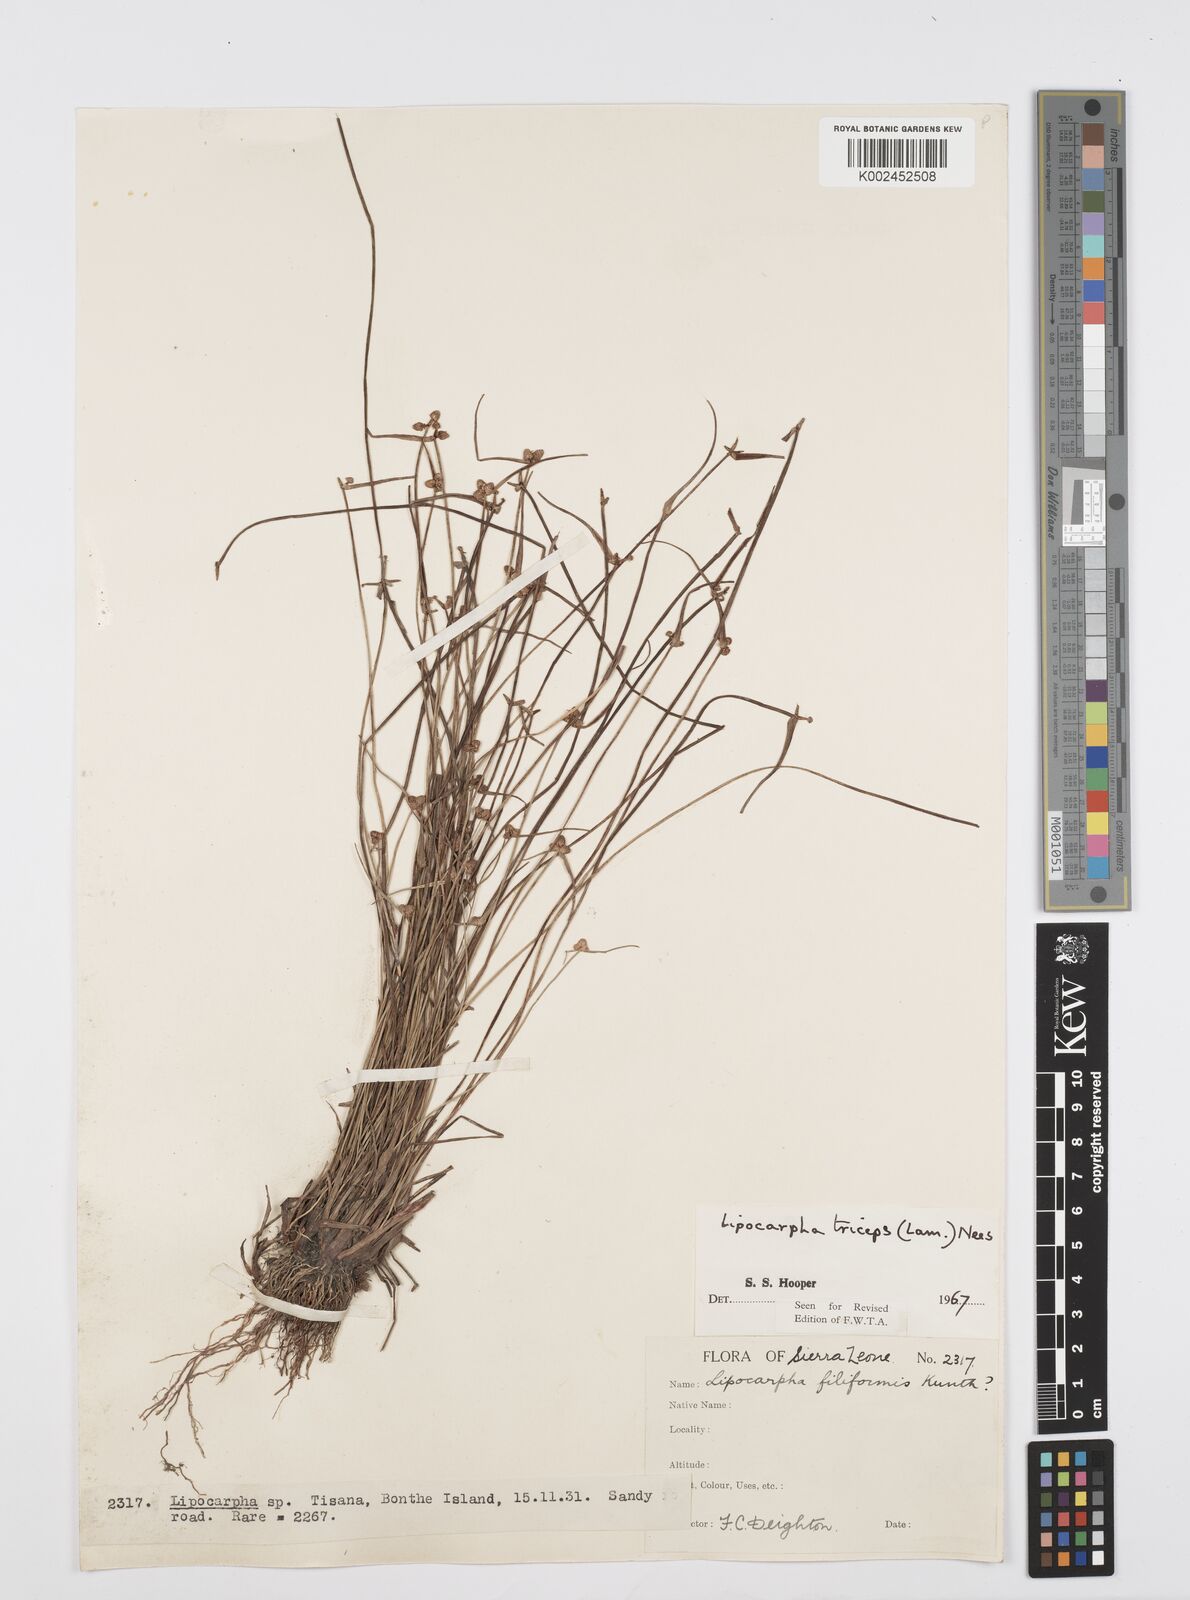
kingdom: Plantae
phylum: Tracheophyta
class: Liliopsida
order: Poales
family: Cyperaceae
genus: Cyperus
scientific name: Cyperus filiformis
